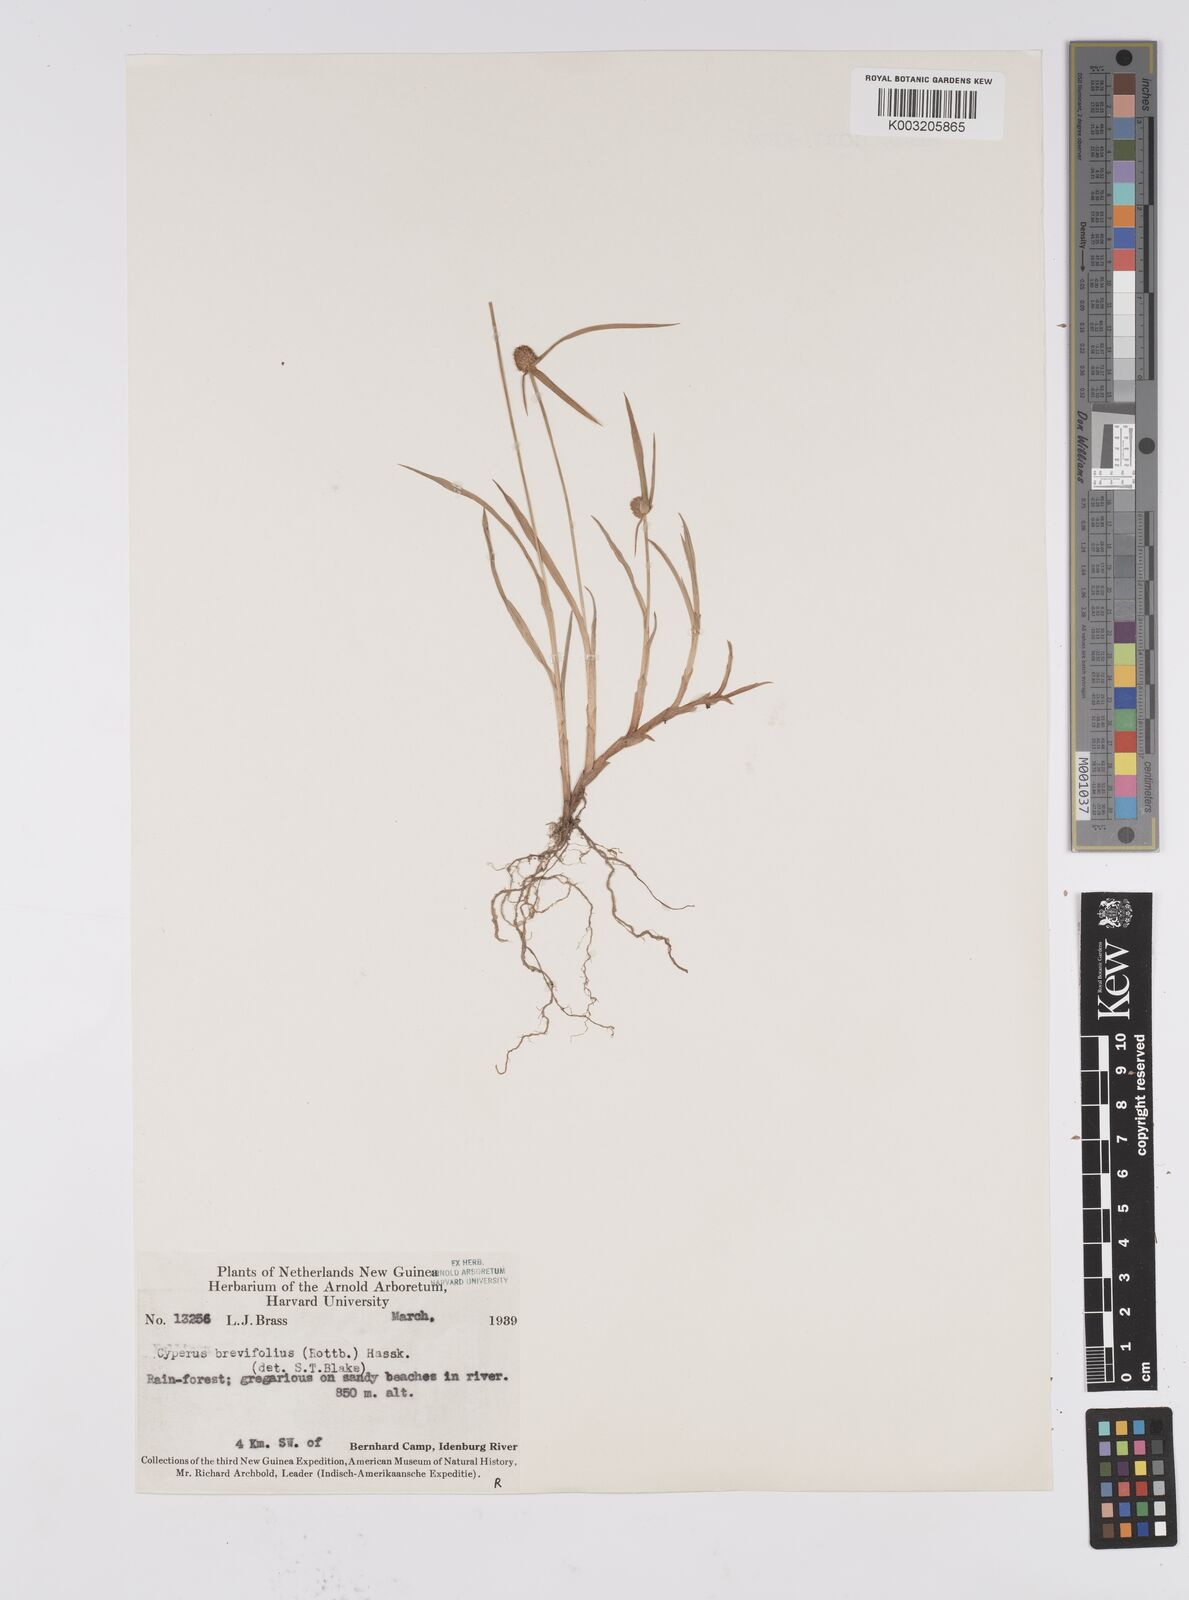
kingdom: Plantae
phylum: Tracheophyta
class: Liliopsida
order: Poales
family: Cyperaceae
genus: Cyperus
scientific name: Cyperus brevifolius
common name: Globe kyllinga
